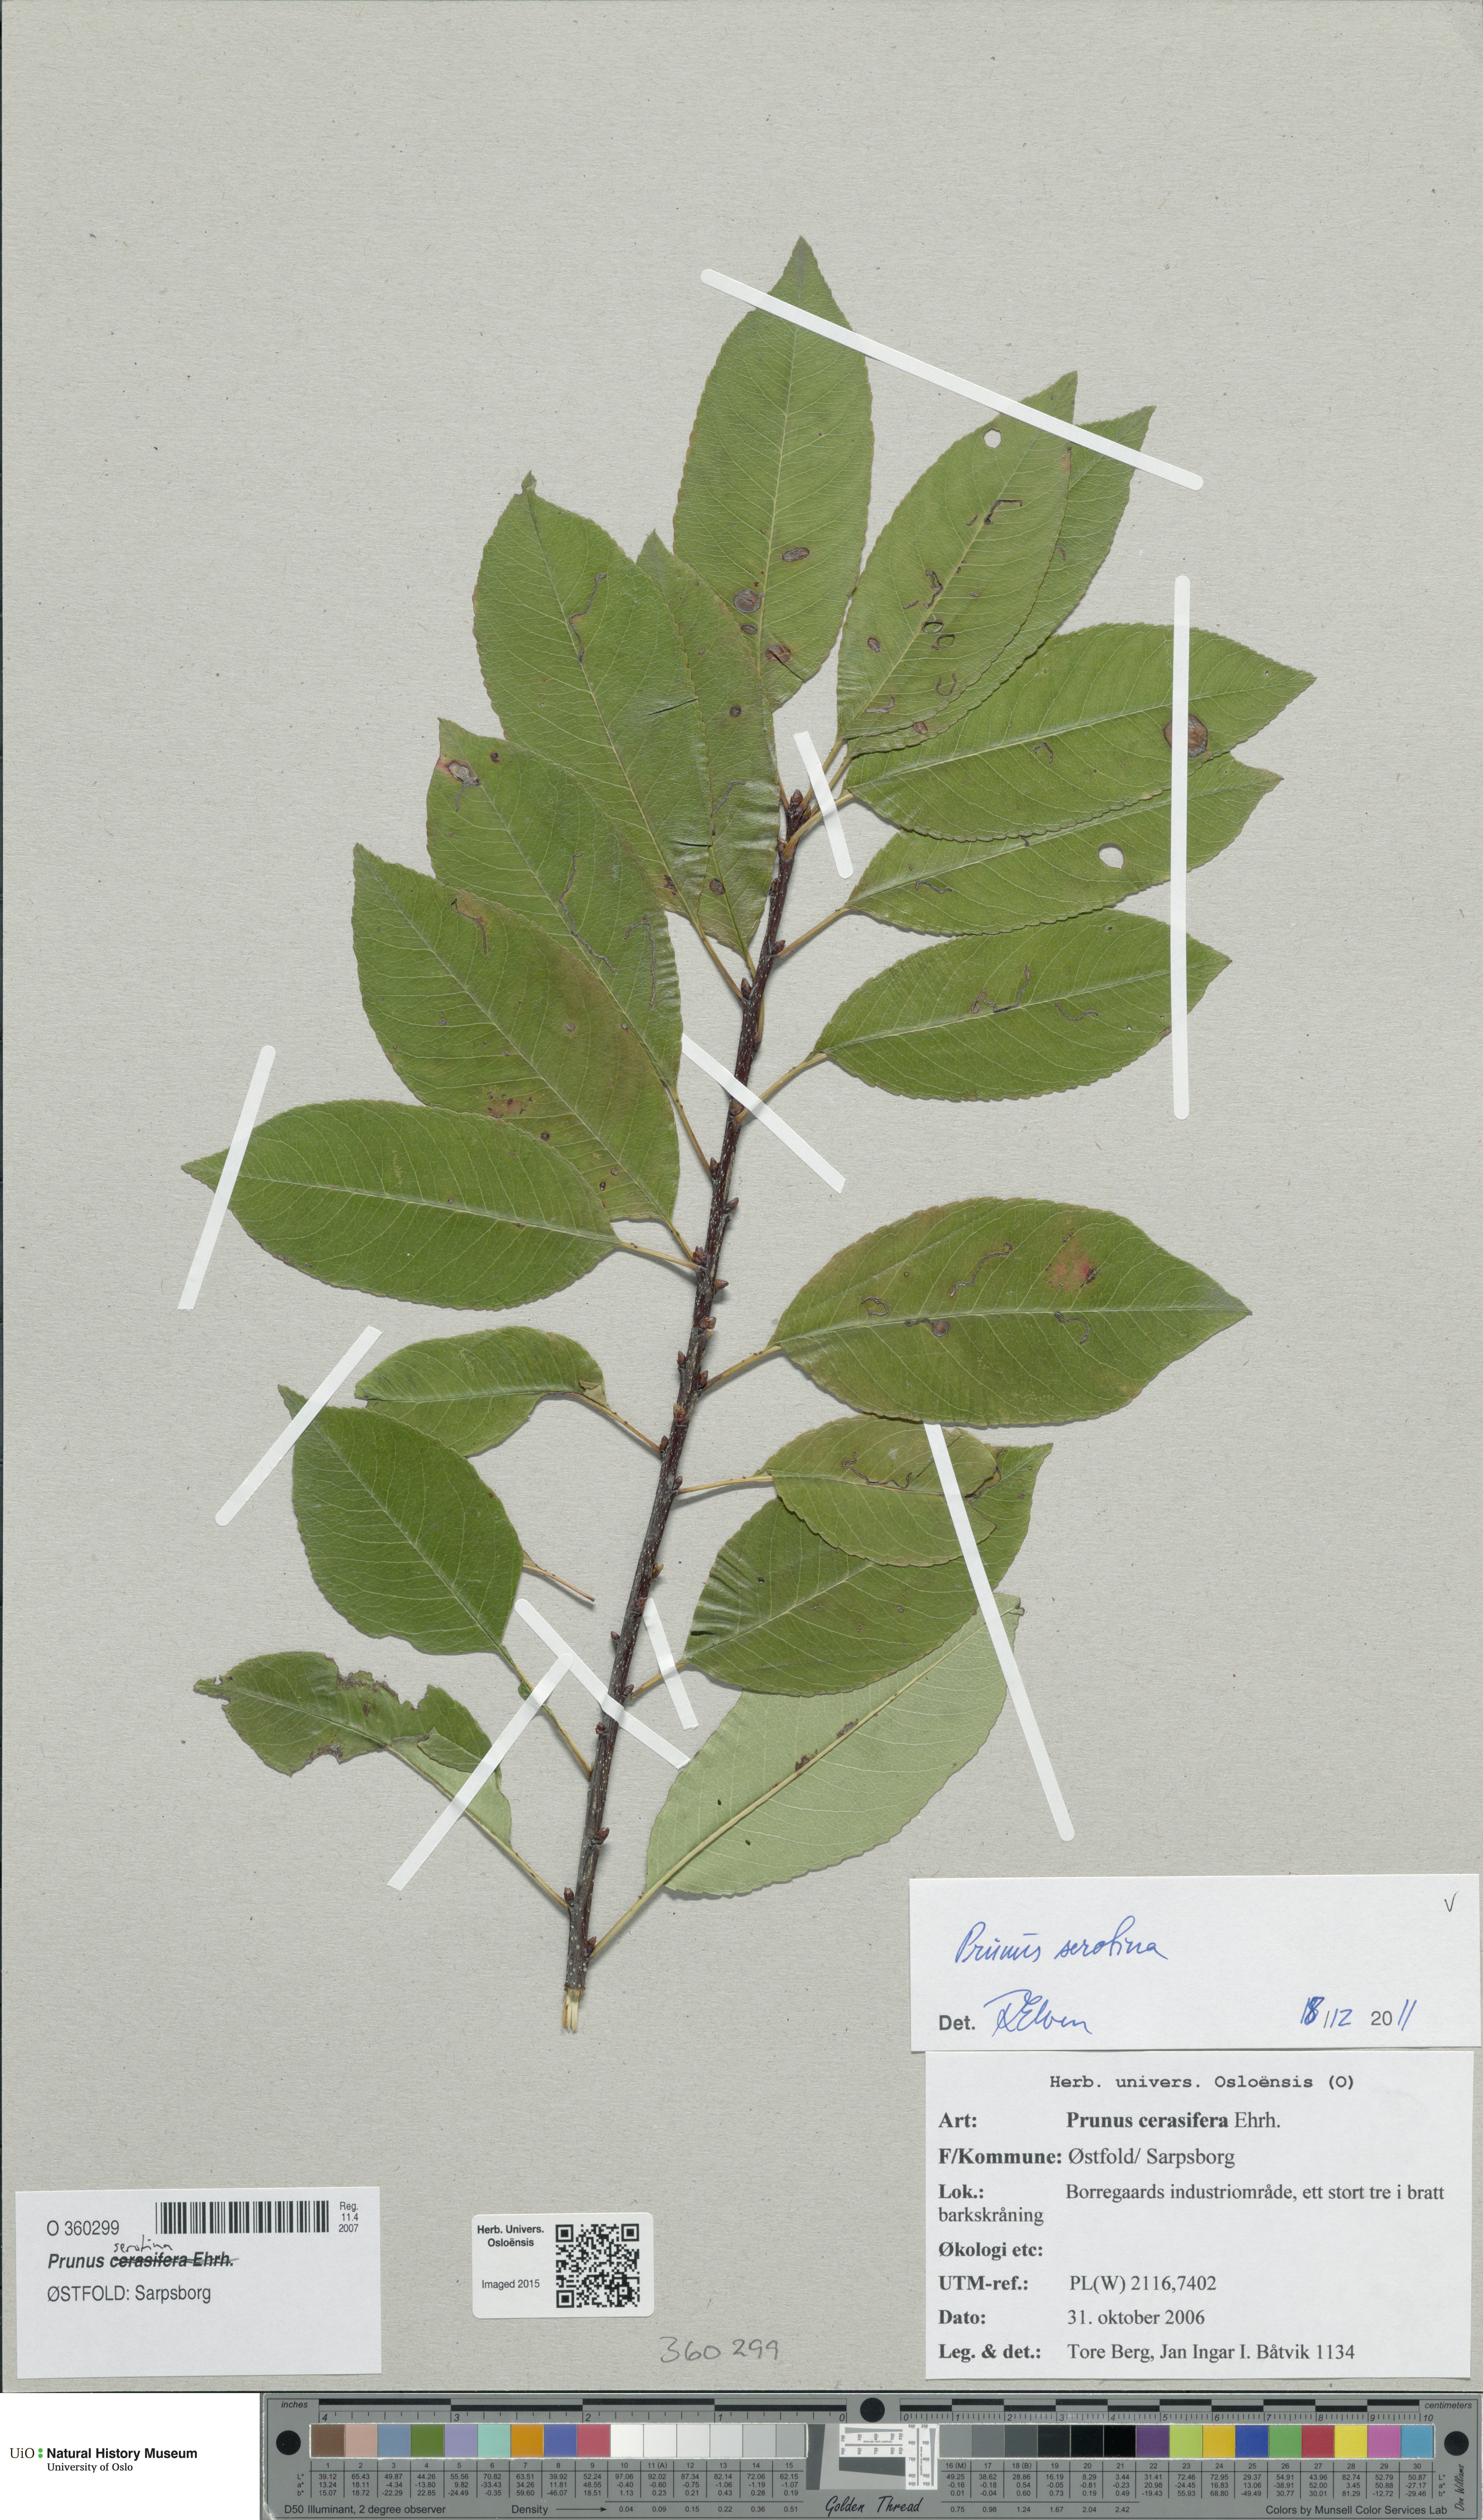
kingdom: Plantae
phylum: Tracheophyta
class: Magnoliopsida
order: Rosales
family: Rosaceae
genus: Prunus
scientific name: Prunus serotina
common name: Black cherry
